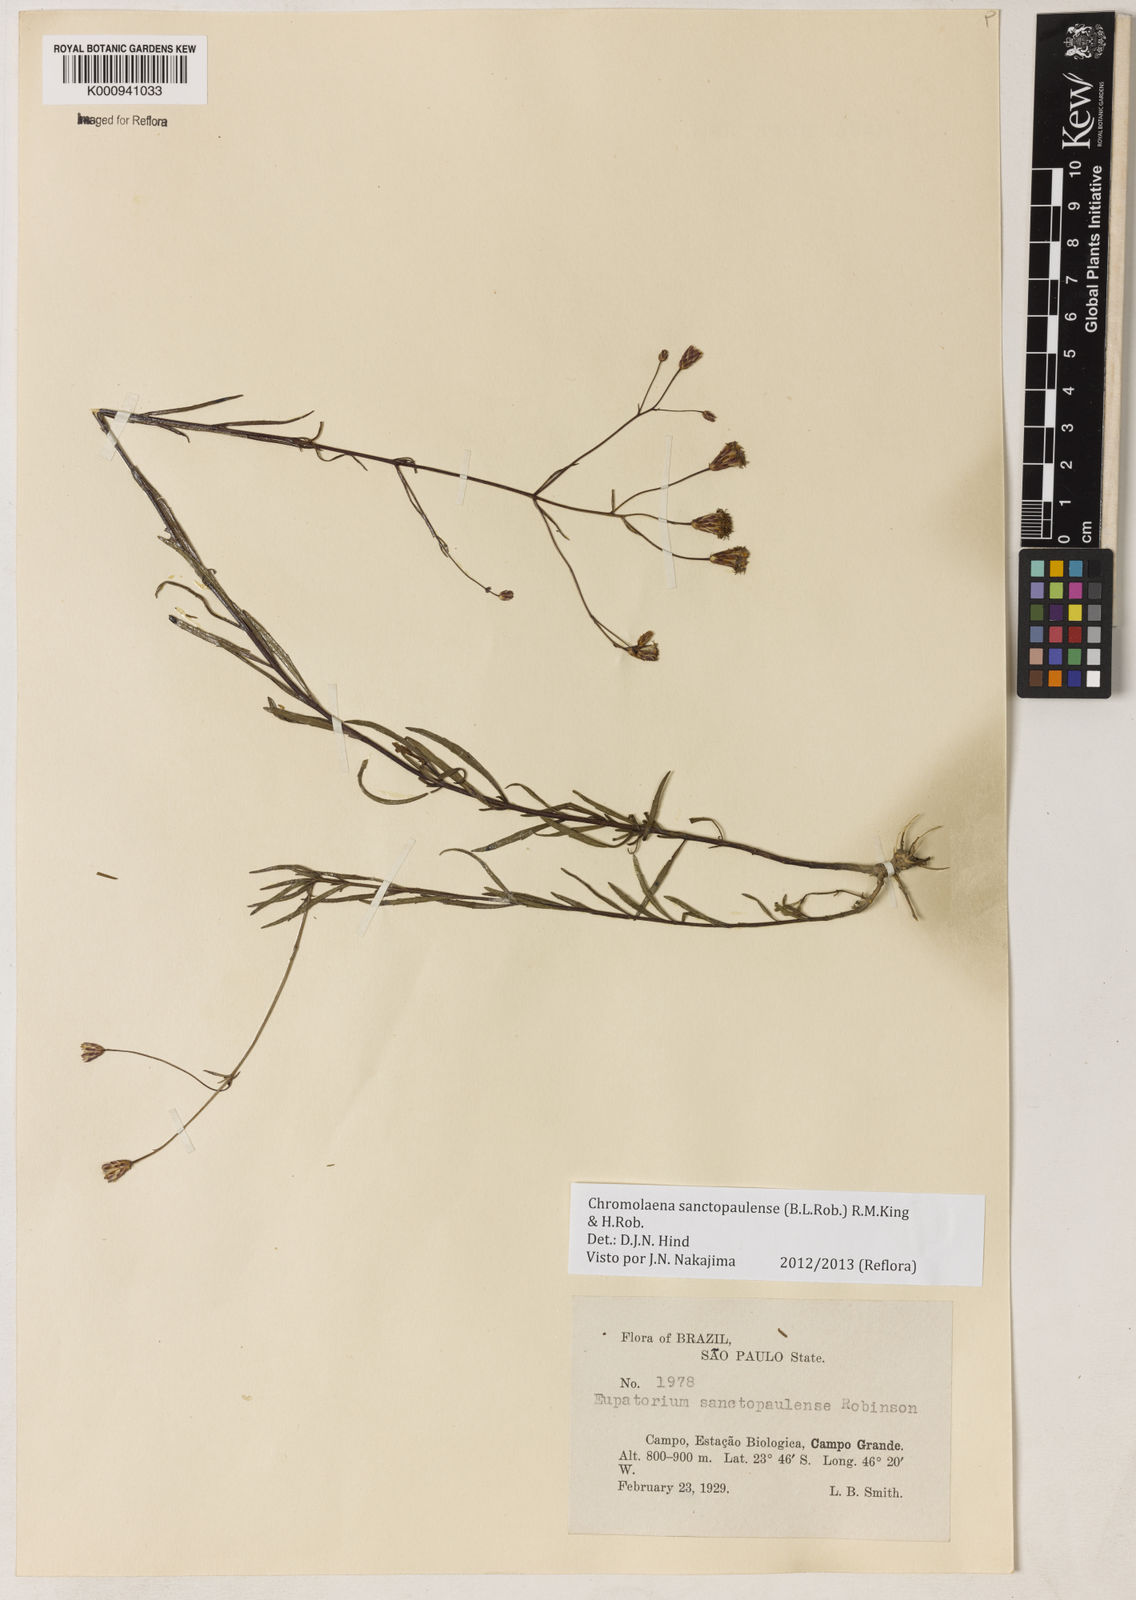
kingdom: Plantae
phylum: Tracheophyta
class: Magnoliopsida
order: Asterales
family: Asteraceae
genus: Chromolaena
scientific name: Chromolaena
